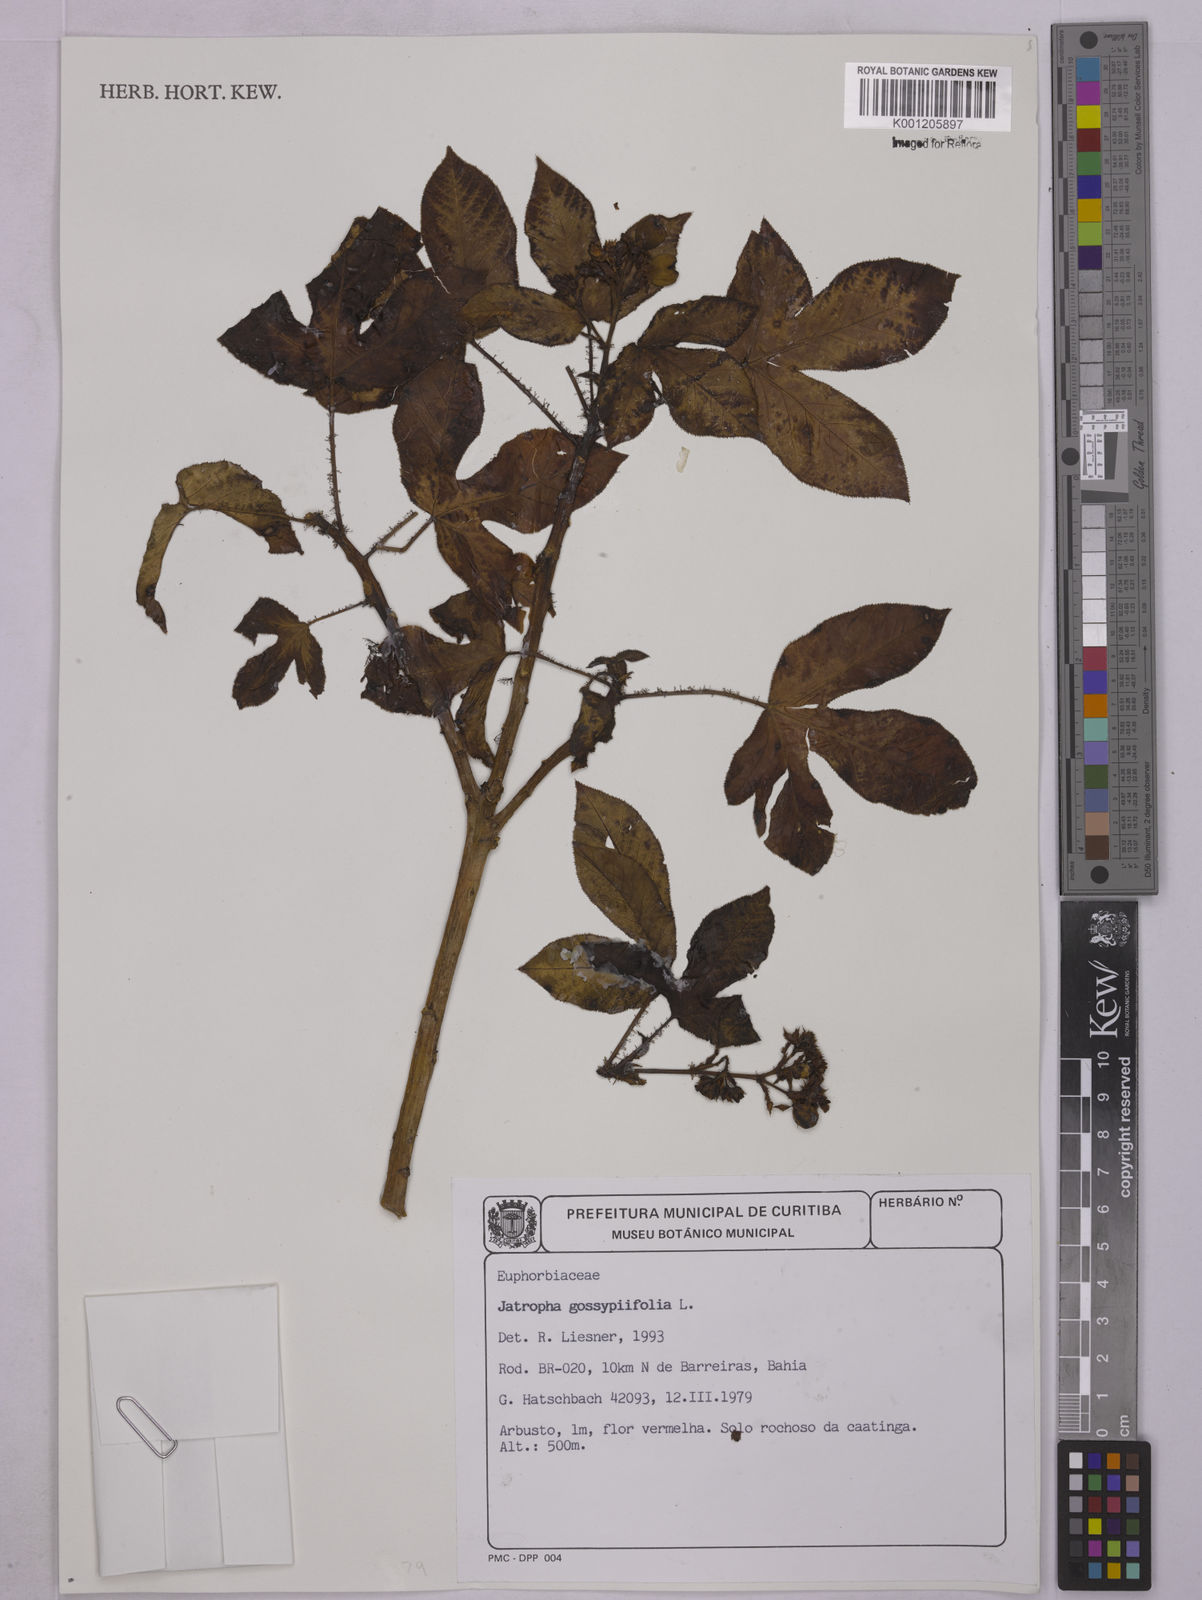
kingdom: Plantae
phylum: Tracheophyta
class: Magnoliopsida
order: Malpighiales
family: Euphorbiaceae
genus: Jatropha
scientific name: Jatropha gossypiifolia
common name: Bellyache bush
